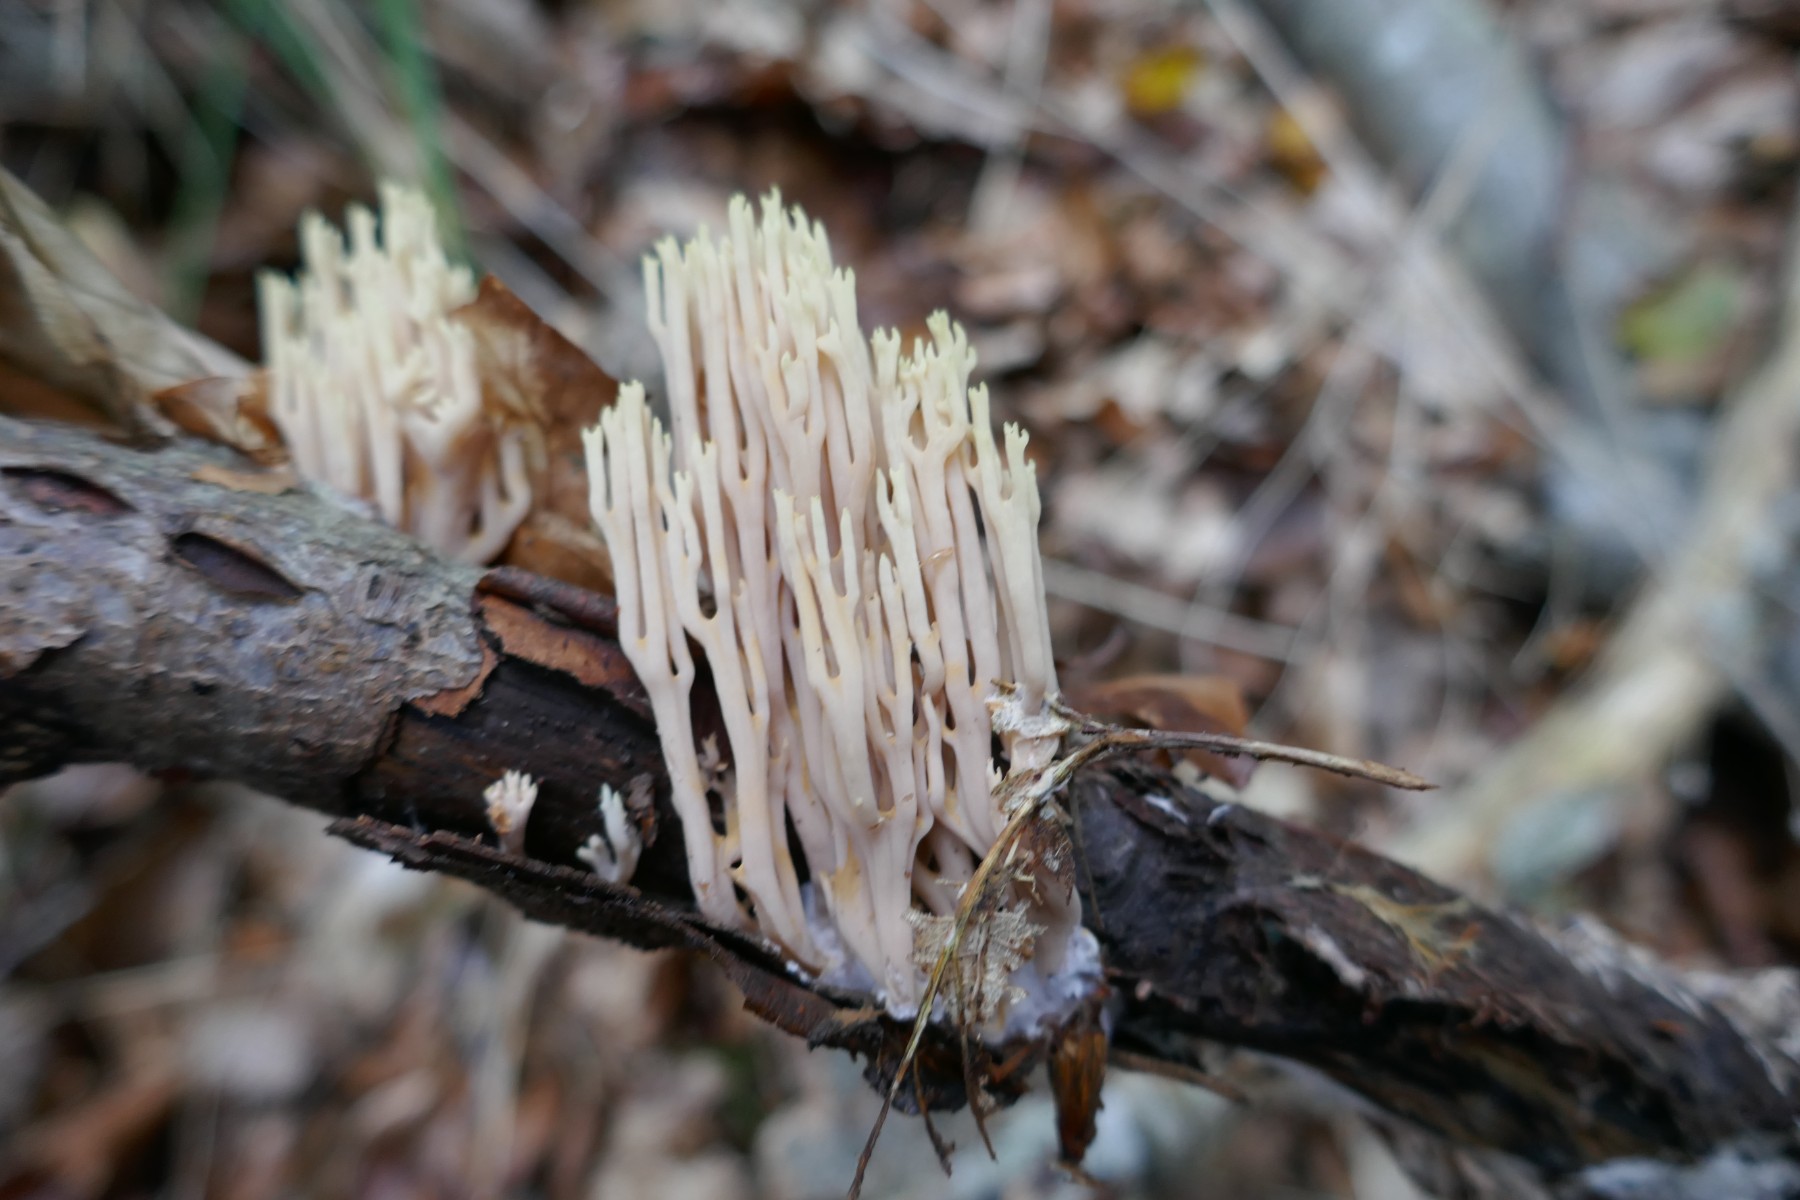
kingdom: Fungi
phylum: Basidiomycota
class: Agaricomycetes
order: Gomphales
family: Gomphaceae
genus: Ramaria
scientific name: Ramaria stricta
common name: rank koralsvamp
